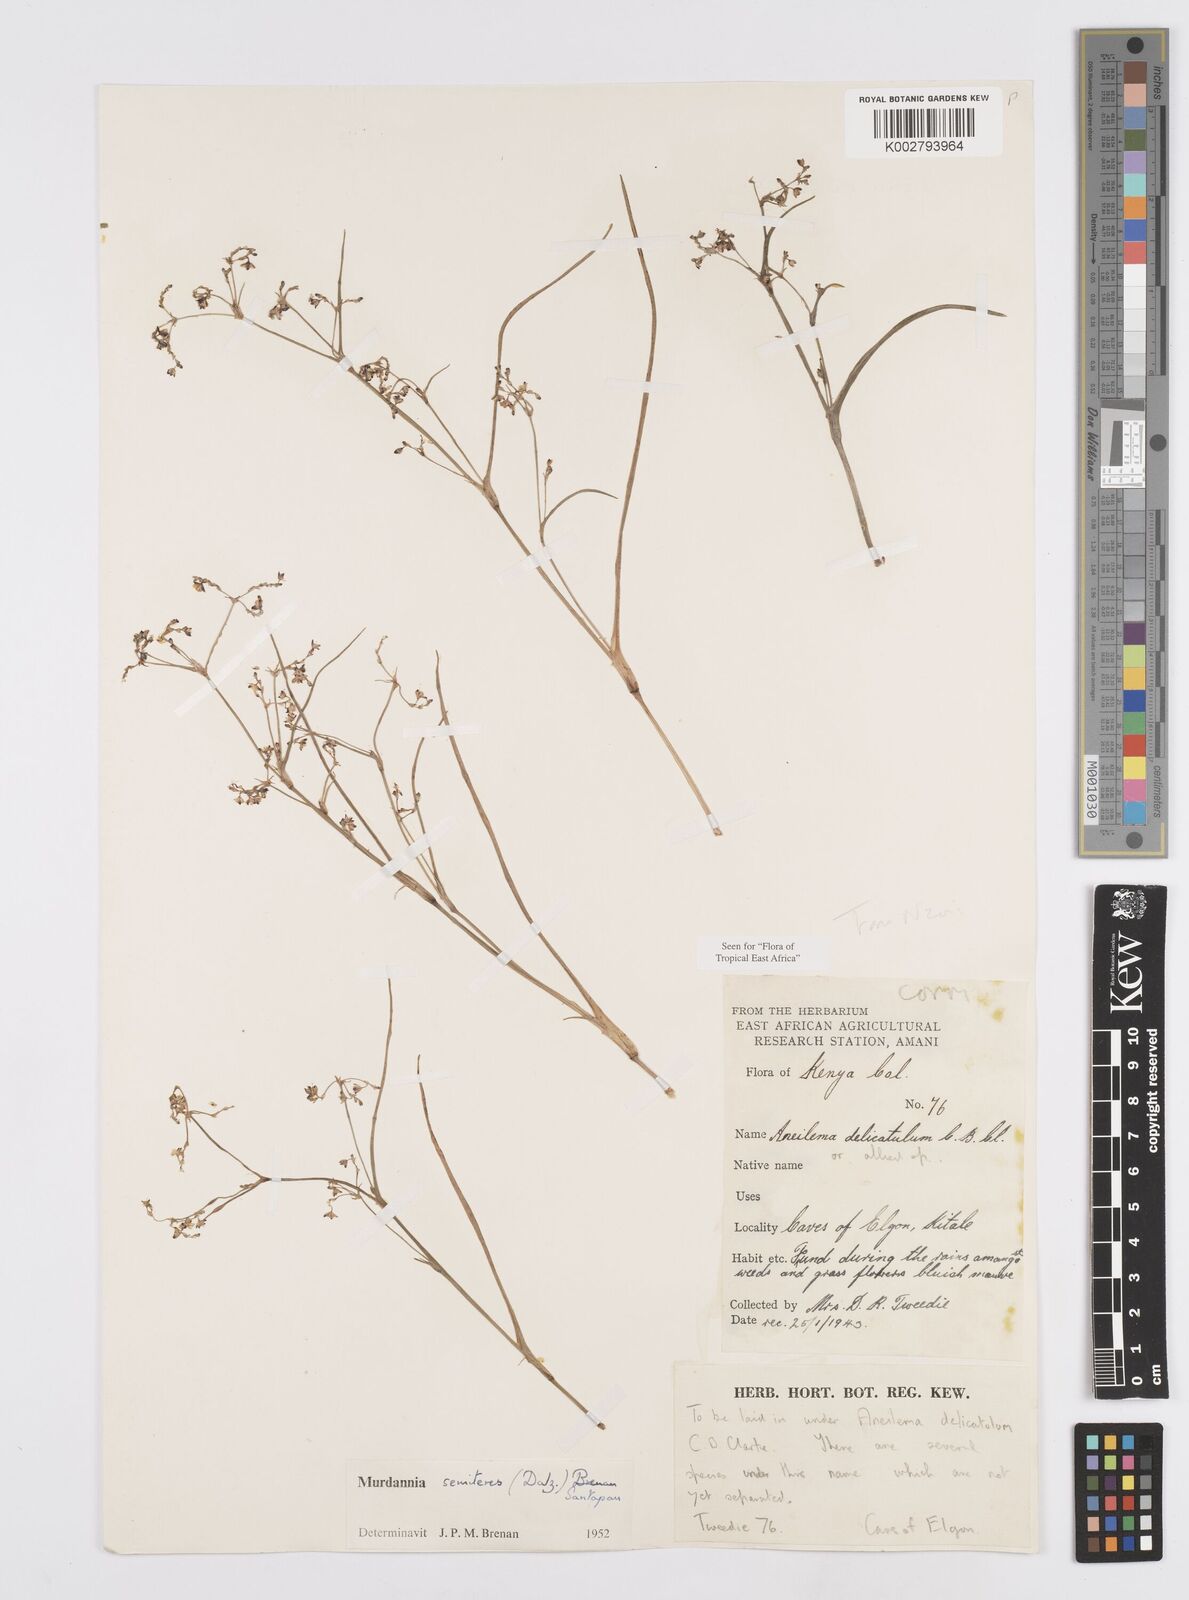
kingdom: Plantae
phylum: Tracheophyta
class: Liliopsida
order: Commelinales
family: Commelinaceae
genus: Murdannia
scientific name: Murdannia semiteres
